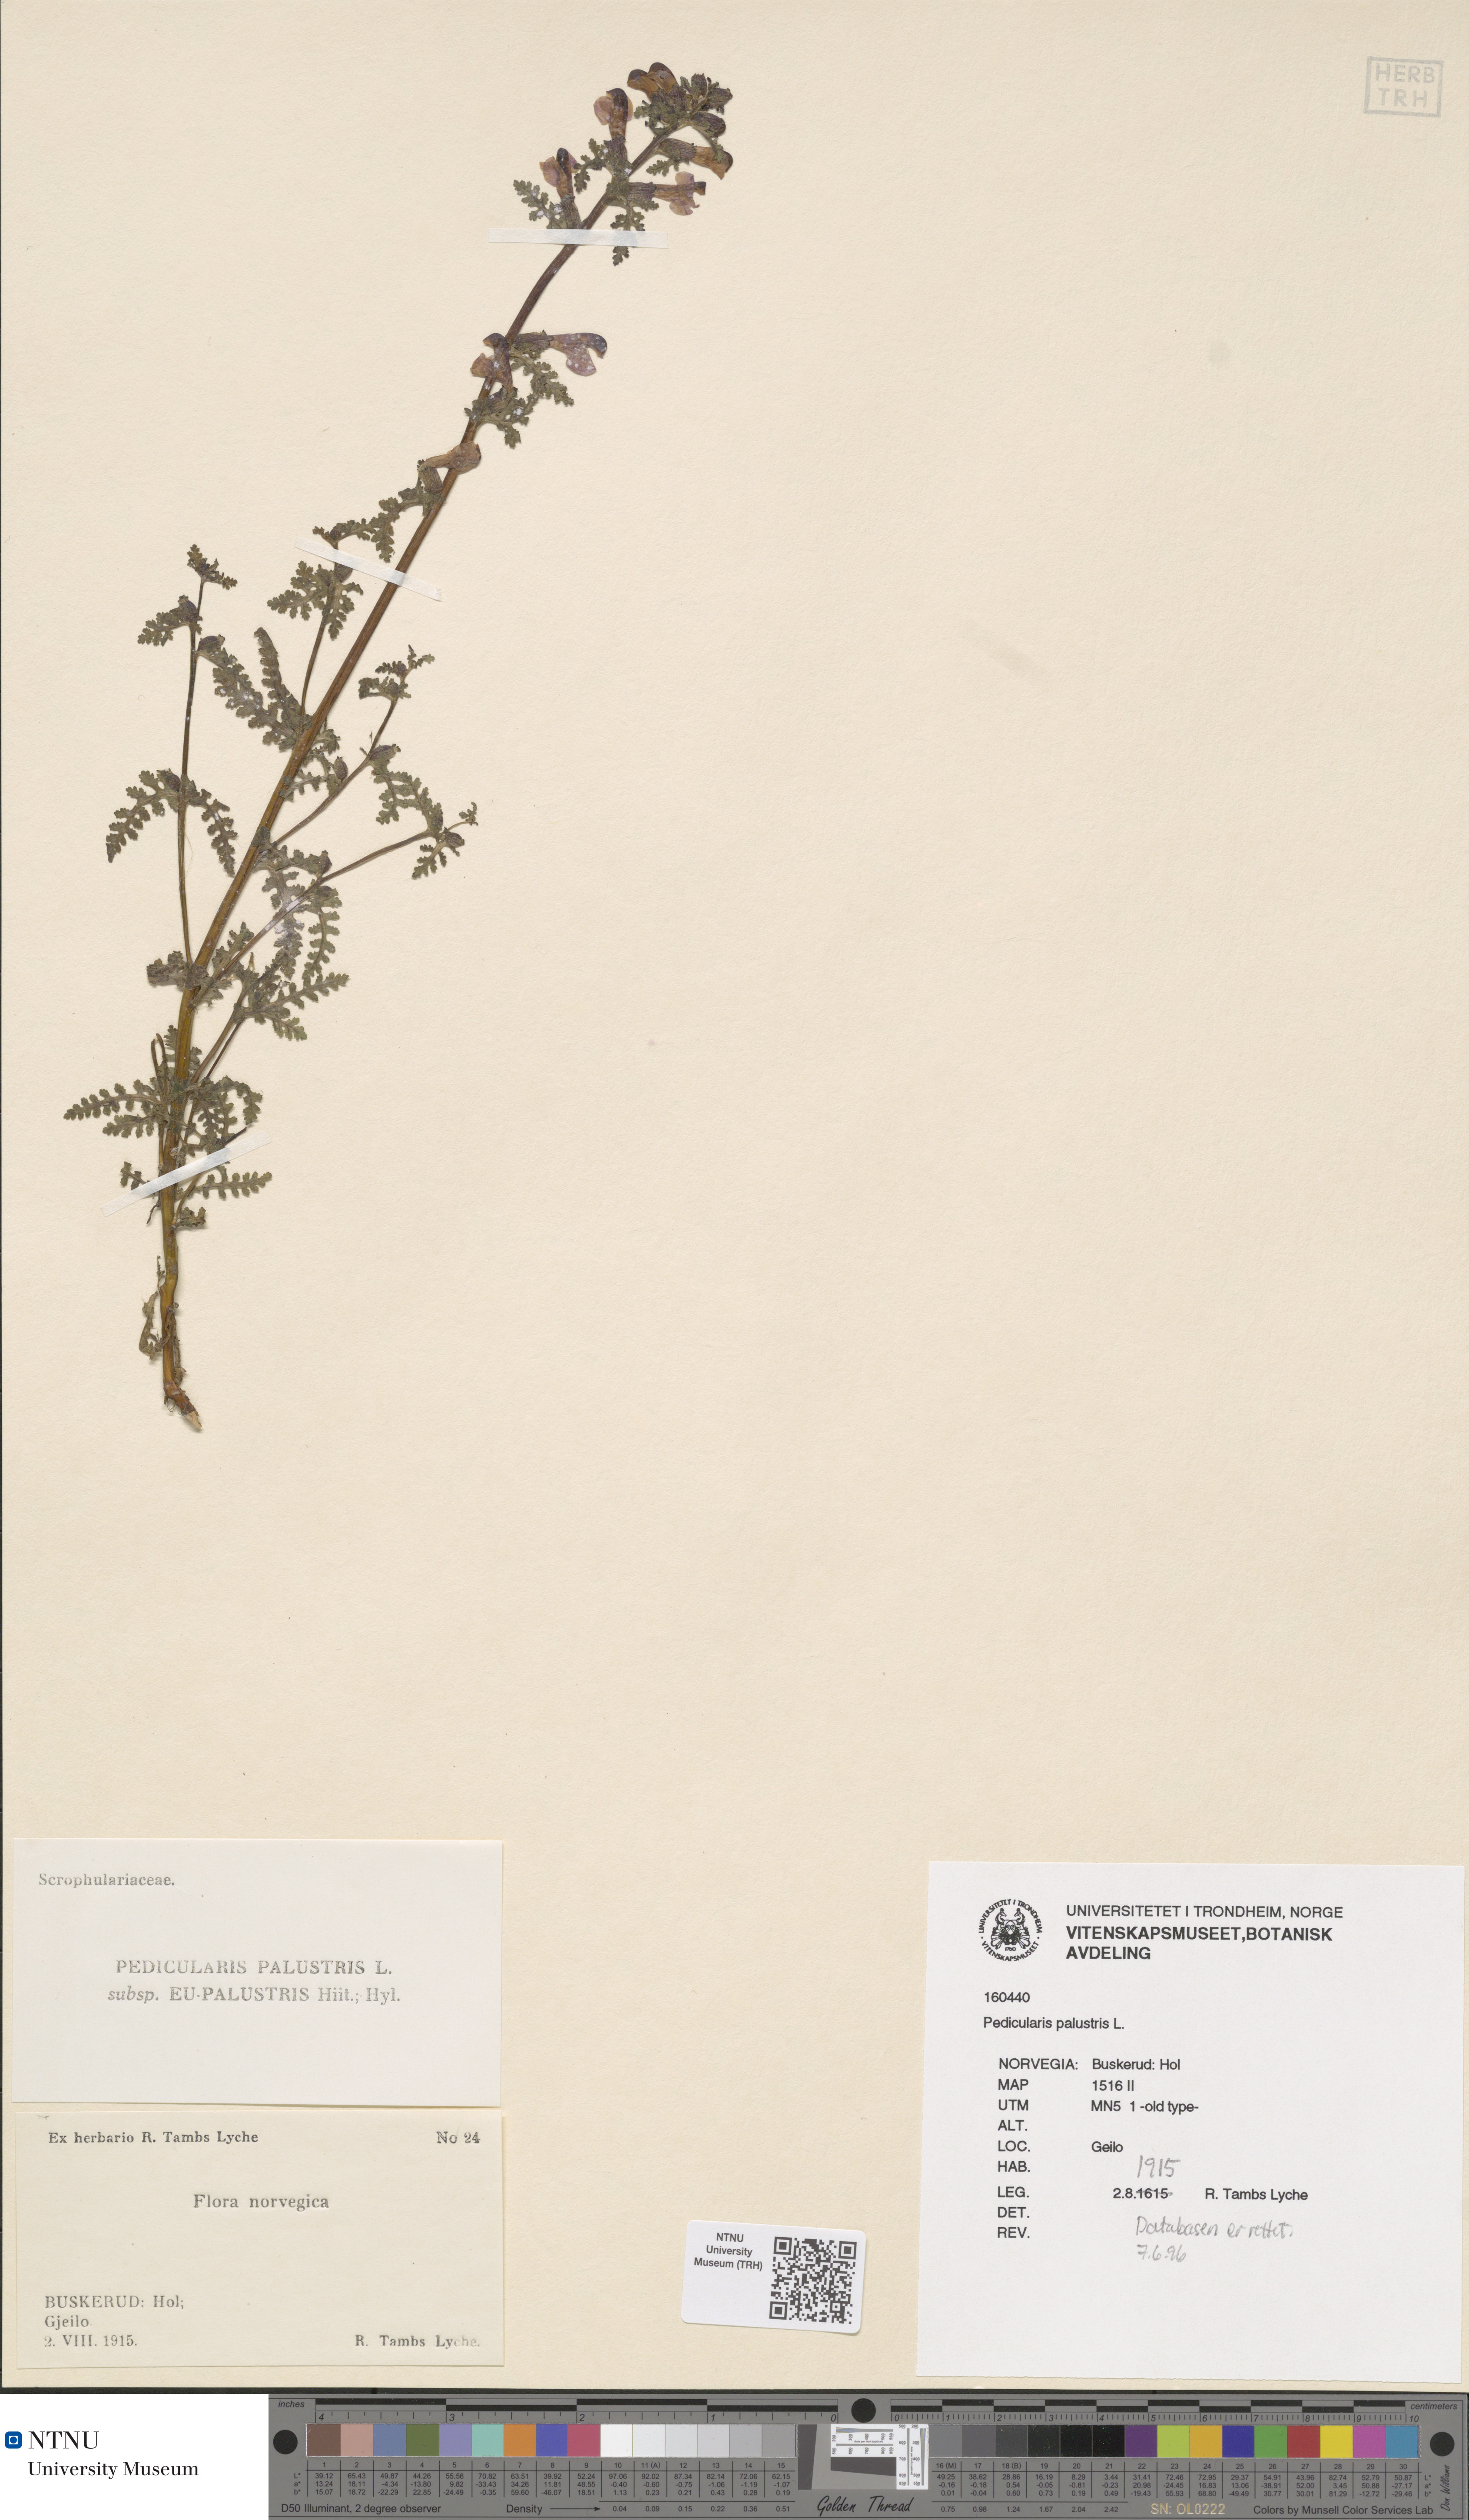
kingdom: Plantae
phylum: Tracheophyta
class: Magnoliopsida
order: Lamiales
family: Orobanchaceae
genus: Pedicularis
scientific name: Pedicularis palustris
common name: Marsh lousewort
